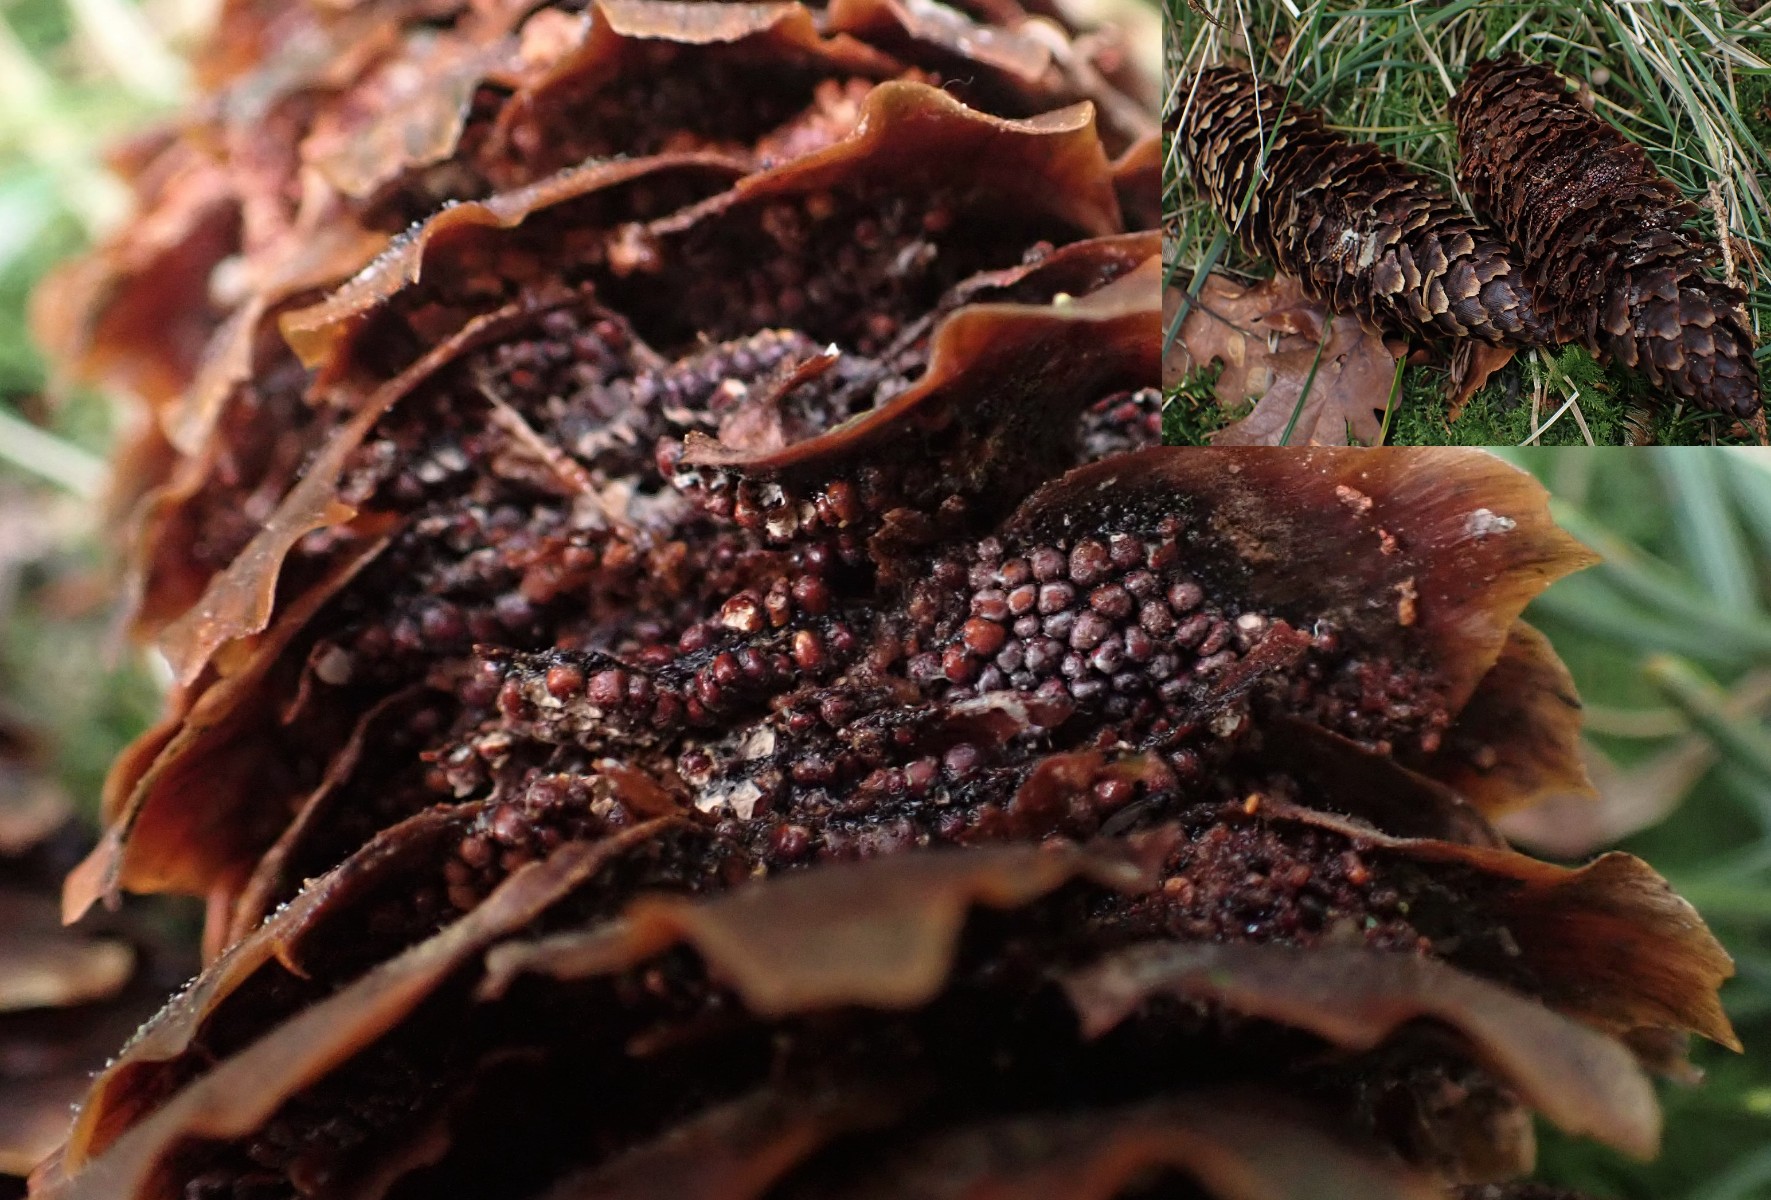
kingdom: Fungi
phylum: Basidiomycota
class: Pucciniomycetes
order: Pucciniales
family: Pucciniastraceae
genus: Thekopsora
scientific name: Thekopsora areolata
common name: grankogle-nålerust
